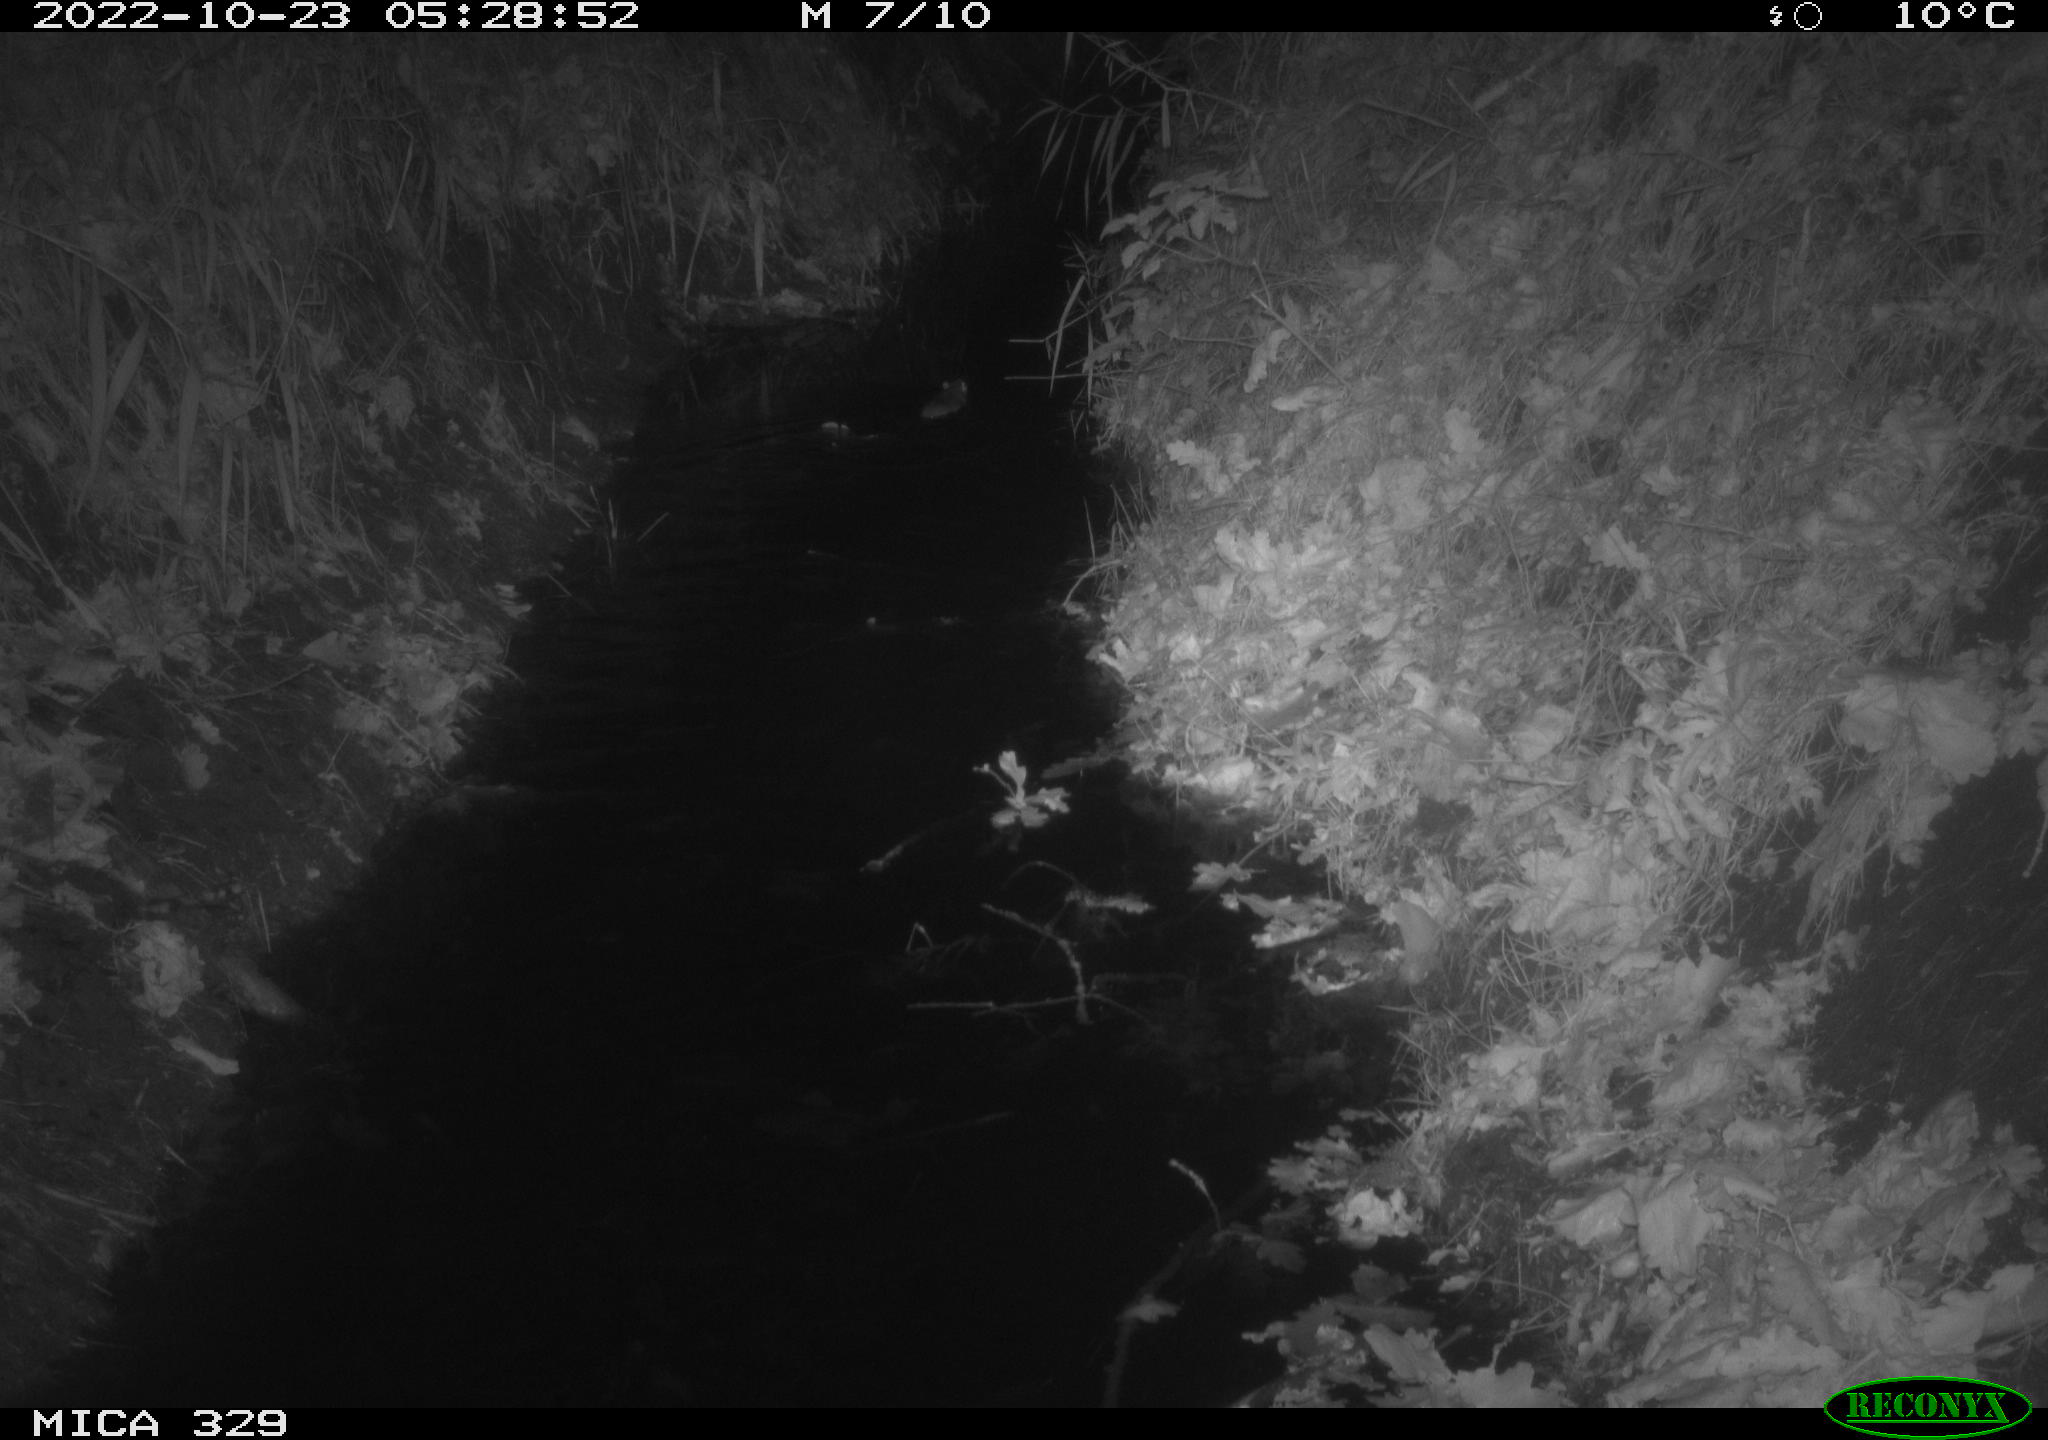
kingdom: Animalia
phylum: Chordata
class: Mammalia
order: Rodentia
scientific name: Rodentia
